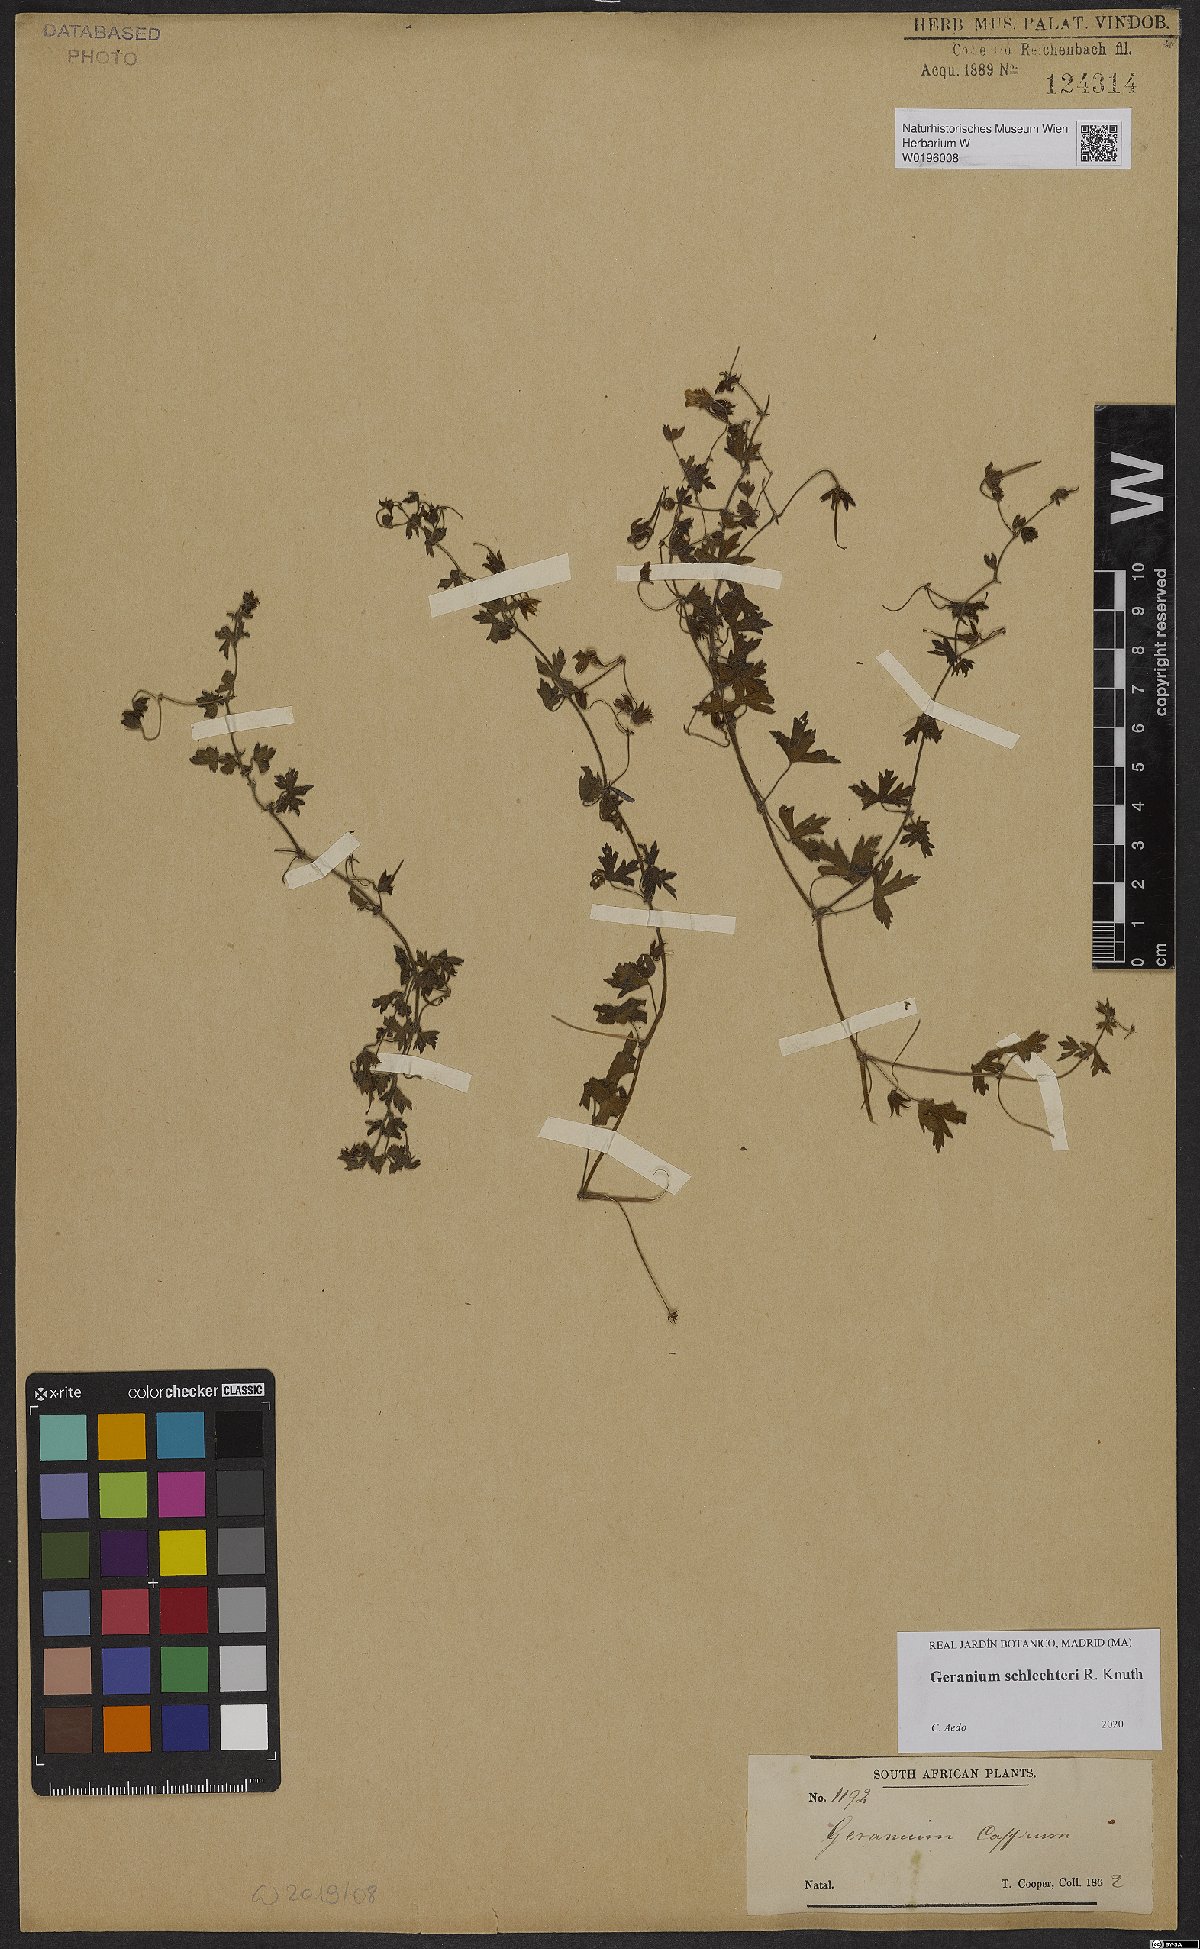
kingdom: Plantae
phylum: Tracheophyta
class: Magnoliopsida
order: Geraniales
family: Geraniaceae
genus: Geranium
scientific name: Geranium schlechteri
